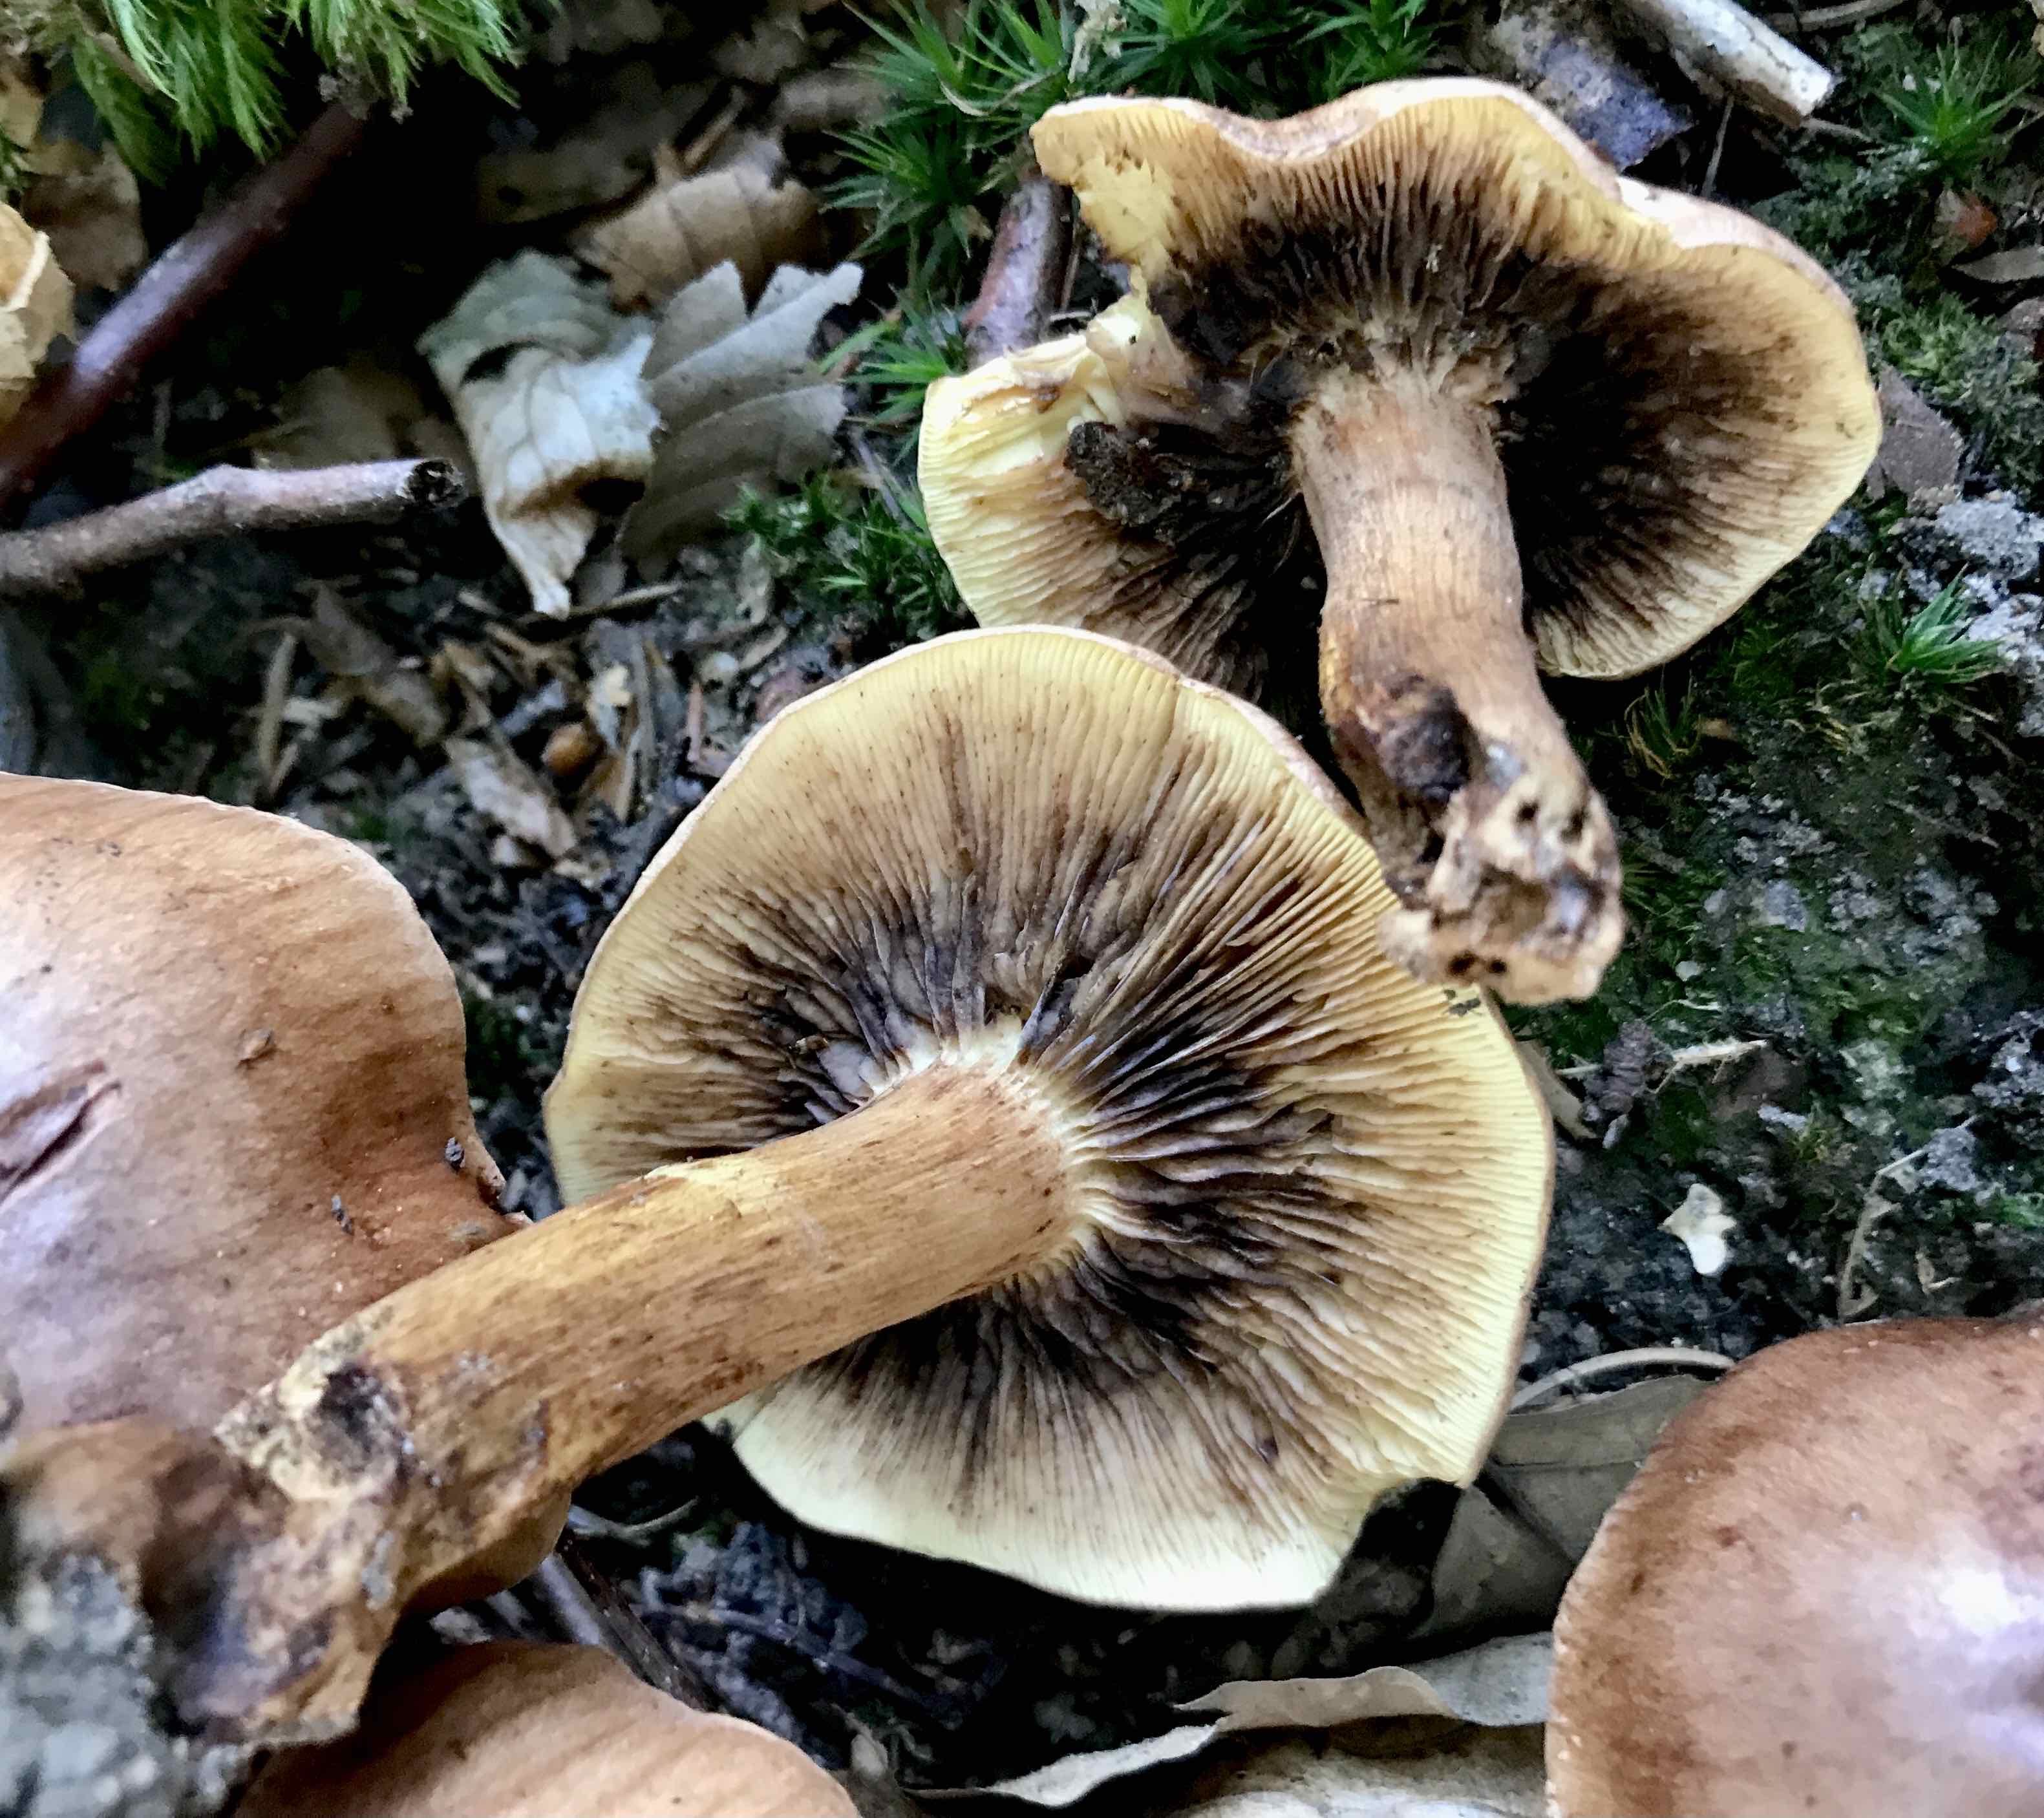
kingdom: Fungi
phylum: Basidiomycota
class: Agaricomycetes
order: Agaricales
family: Tricholomataceae
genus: Tricholoma
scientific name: Tricholoma fulvum
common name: birke-ridderhat
